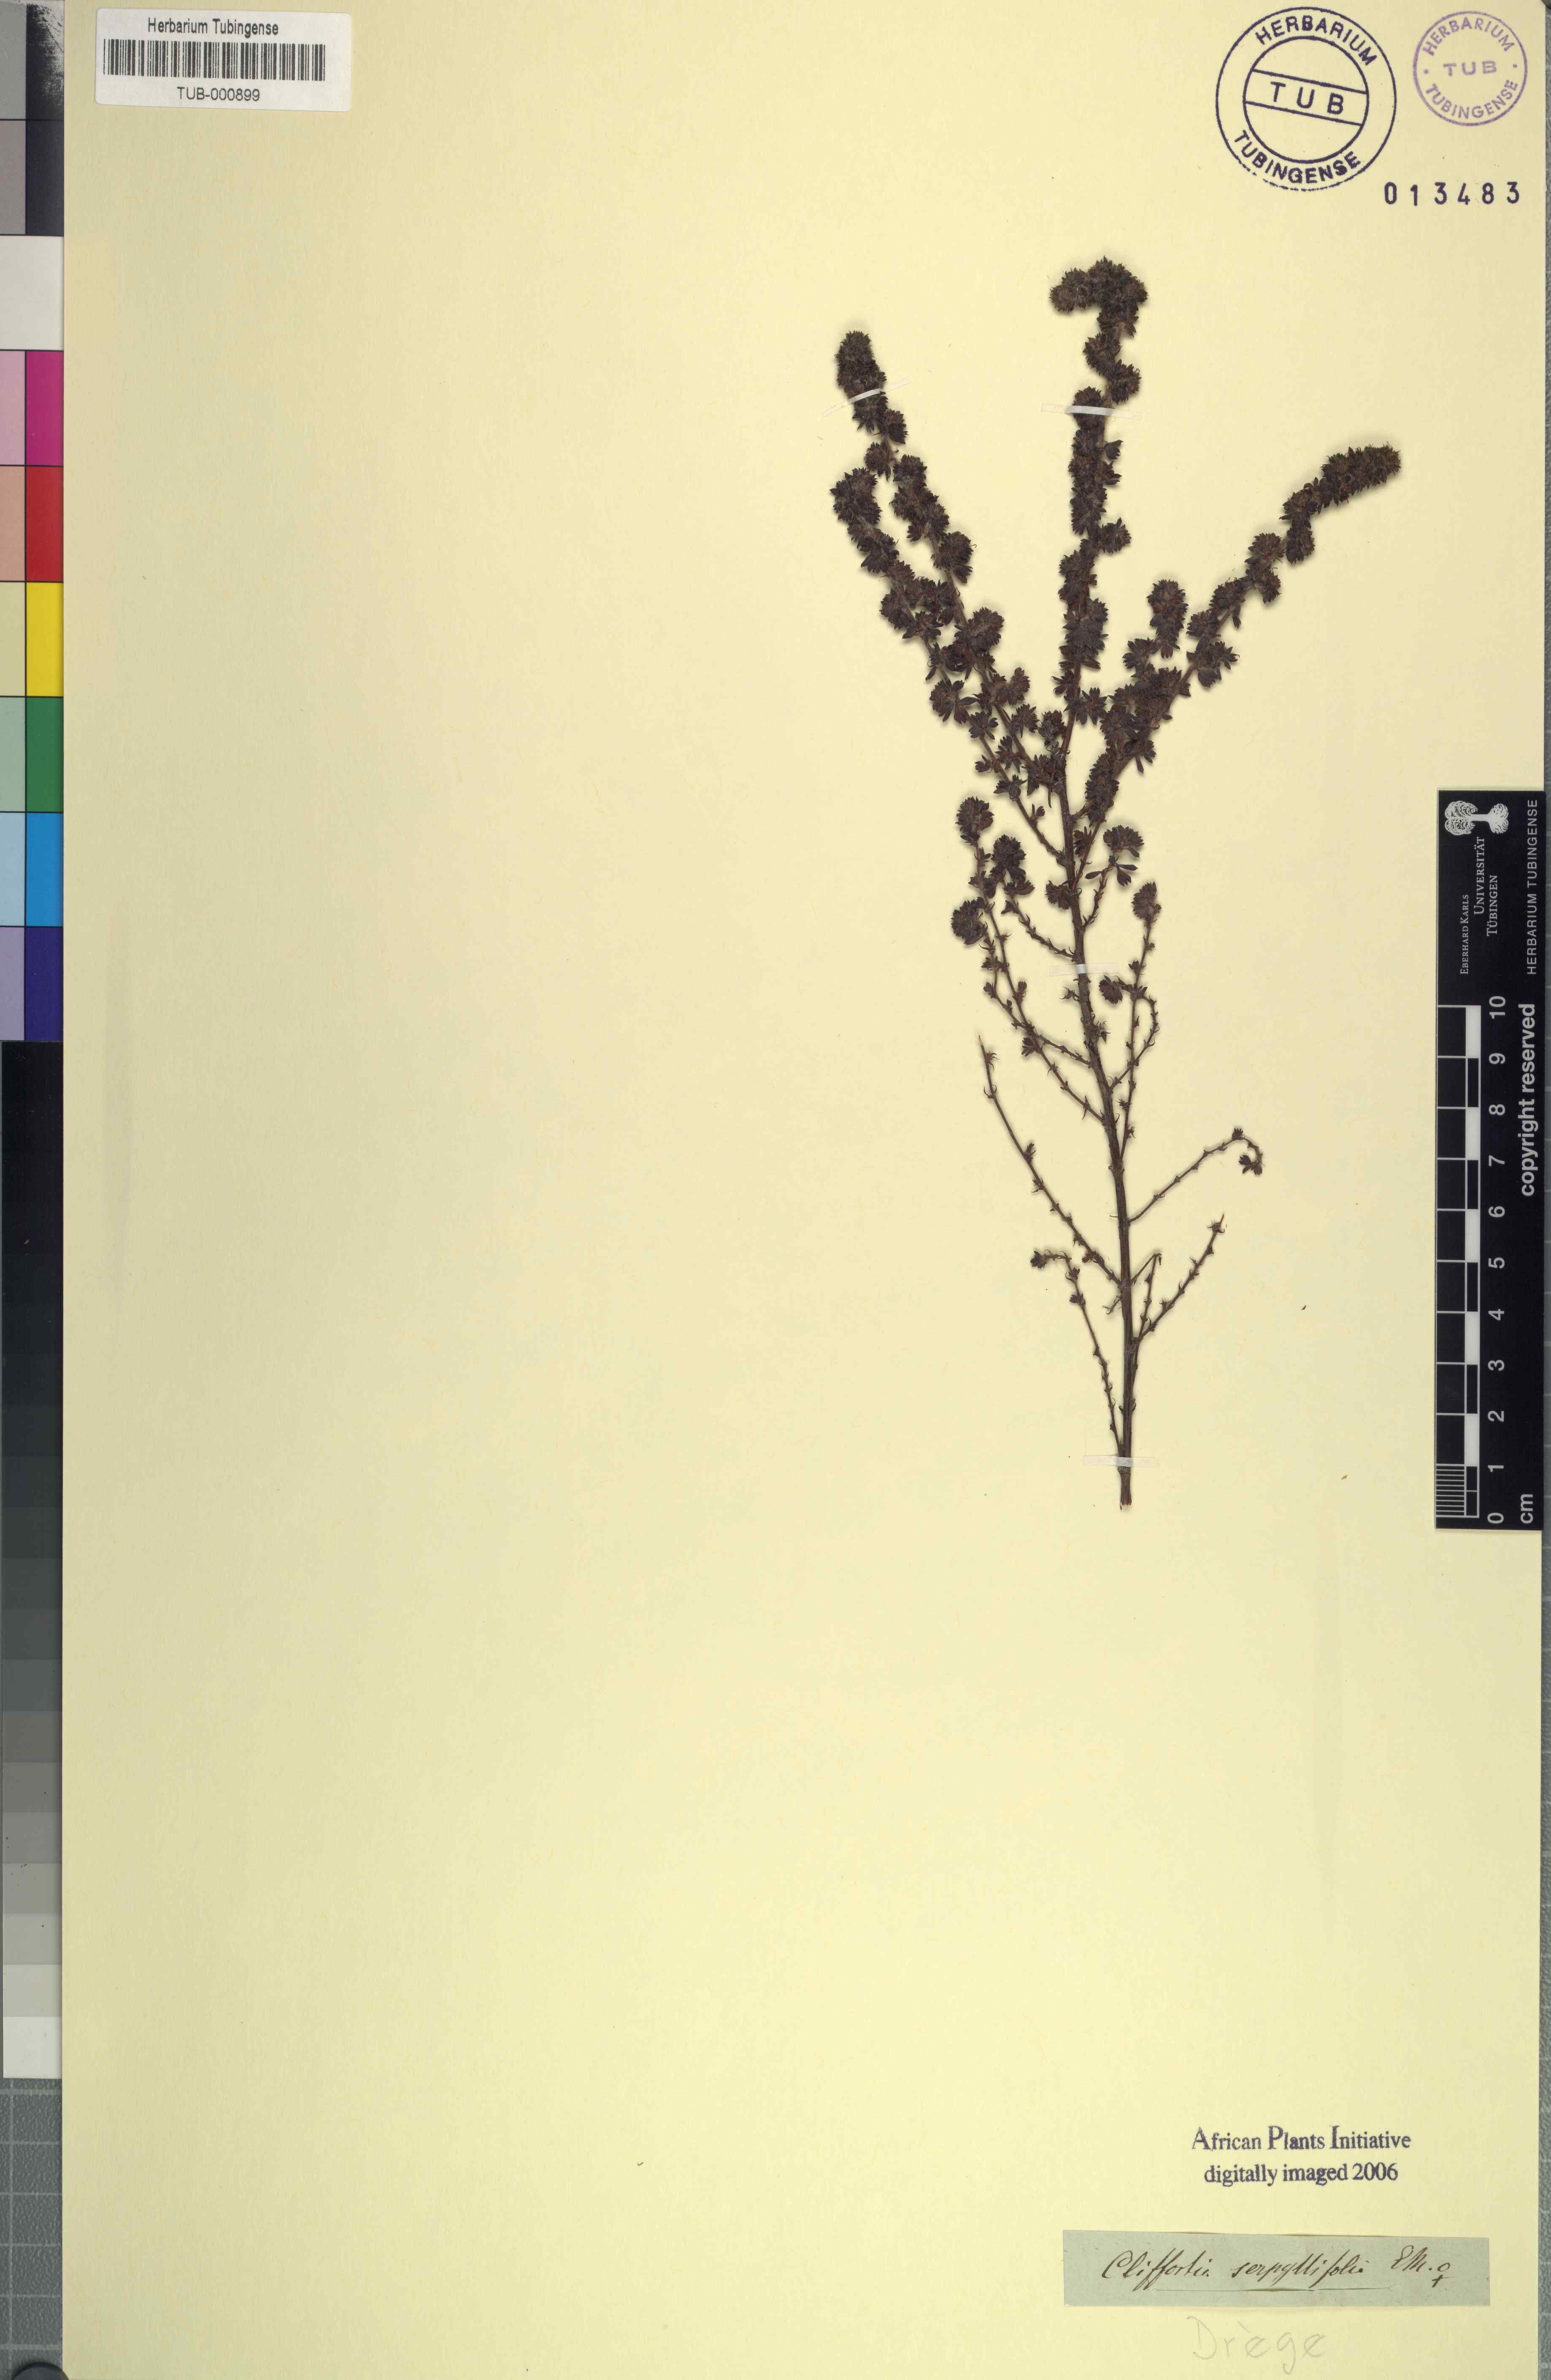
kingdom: Plantae
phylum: Tracheophyta
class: Magnoliopsida
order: Rosales
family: Rosaceae
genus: Cliffortia
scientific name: Cliffortia serpyllifolia
